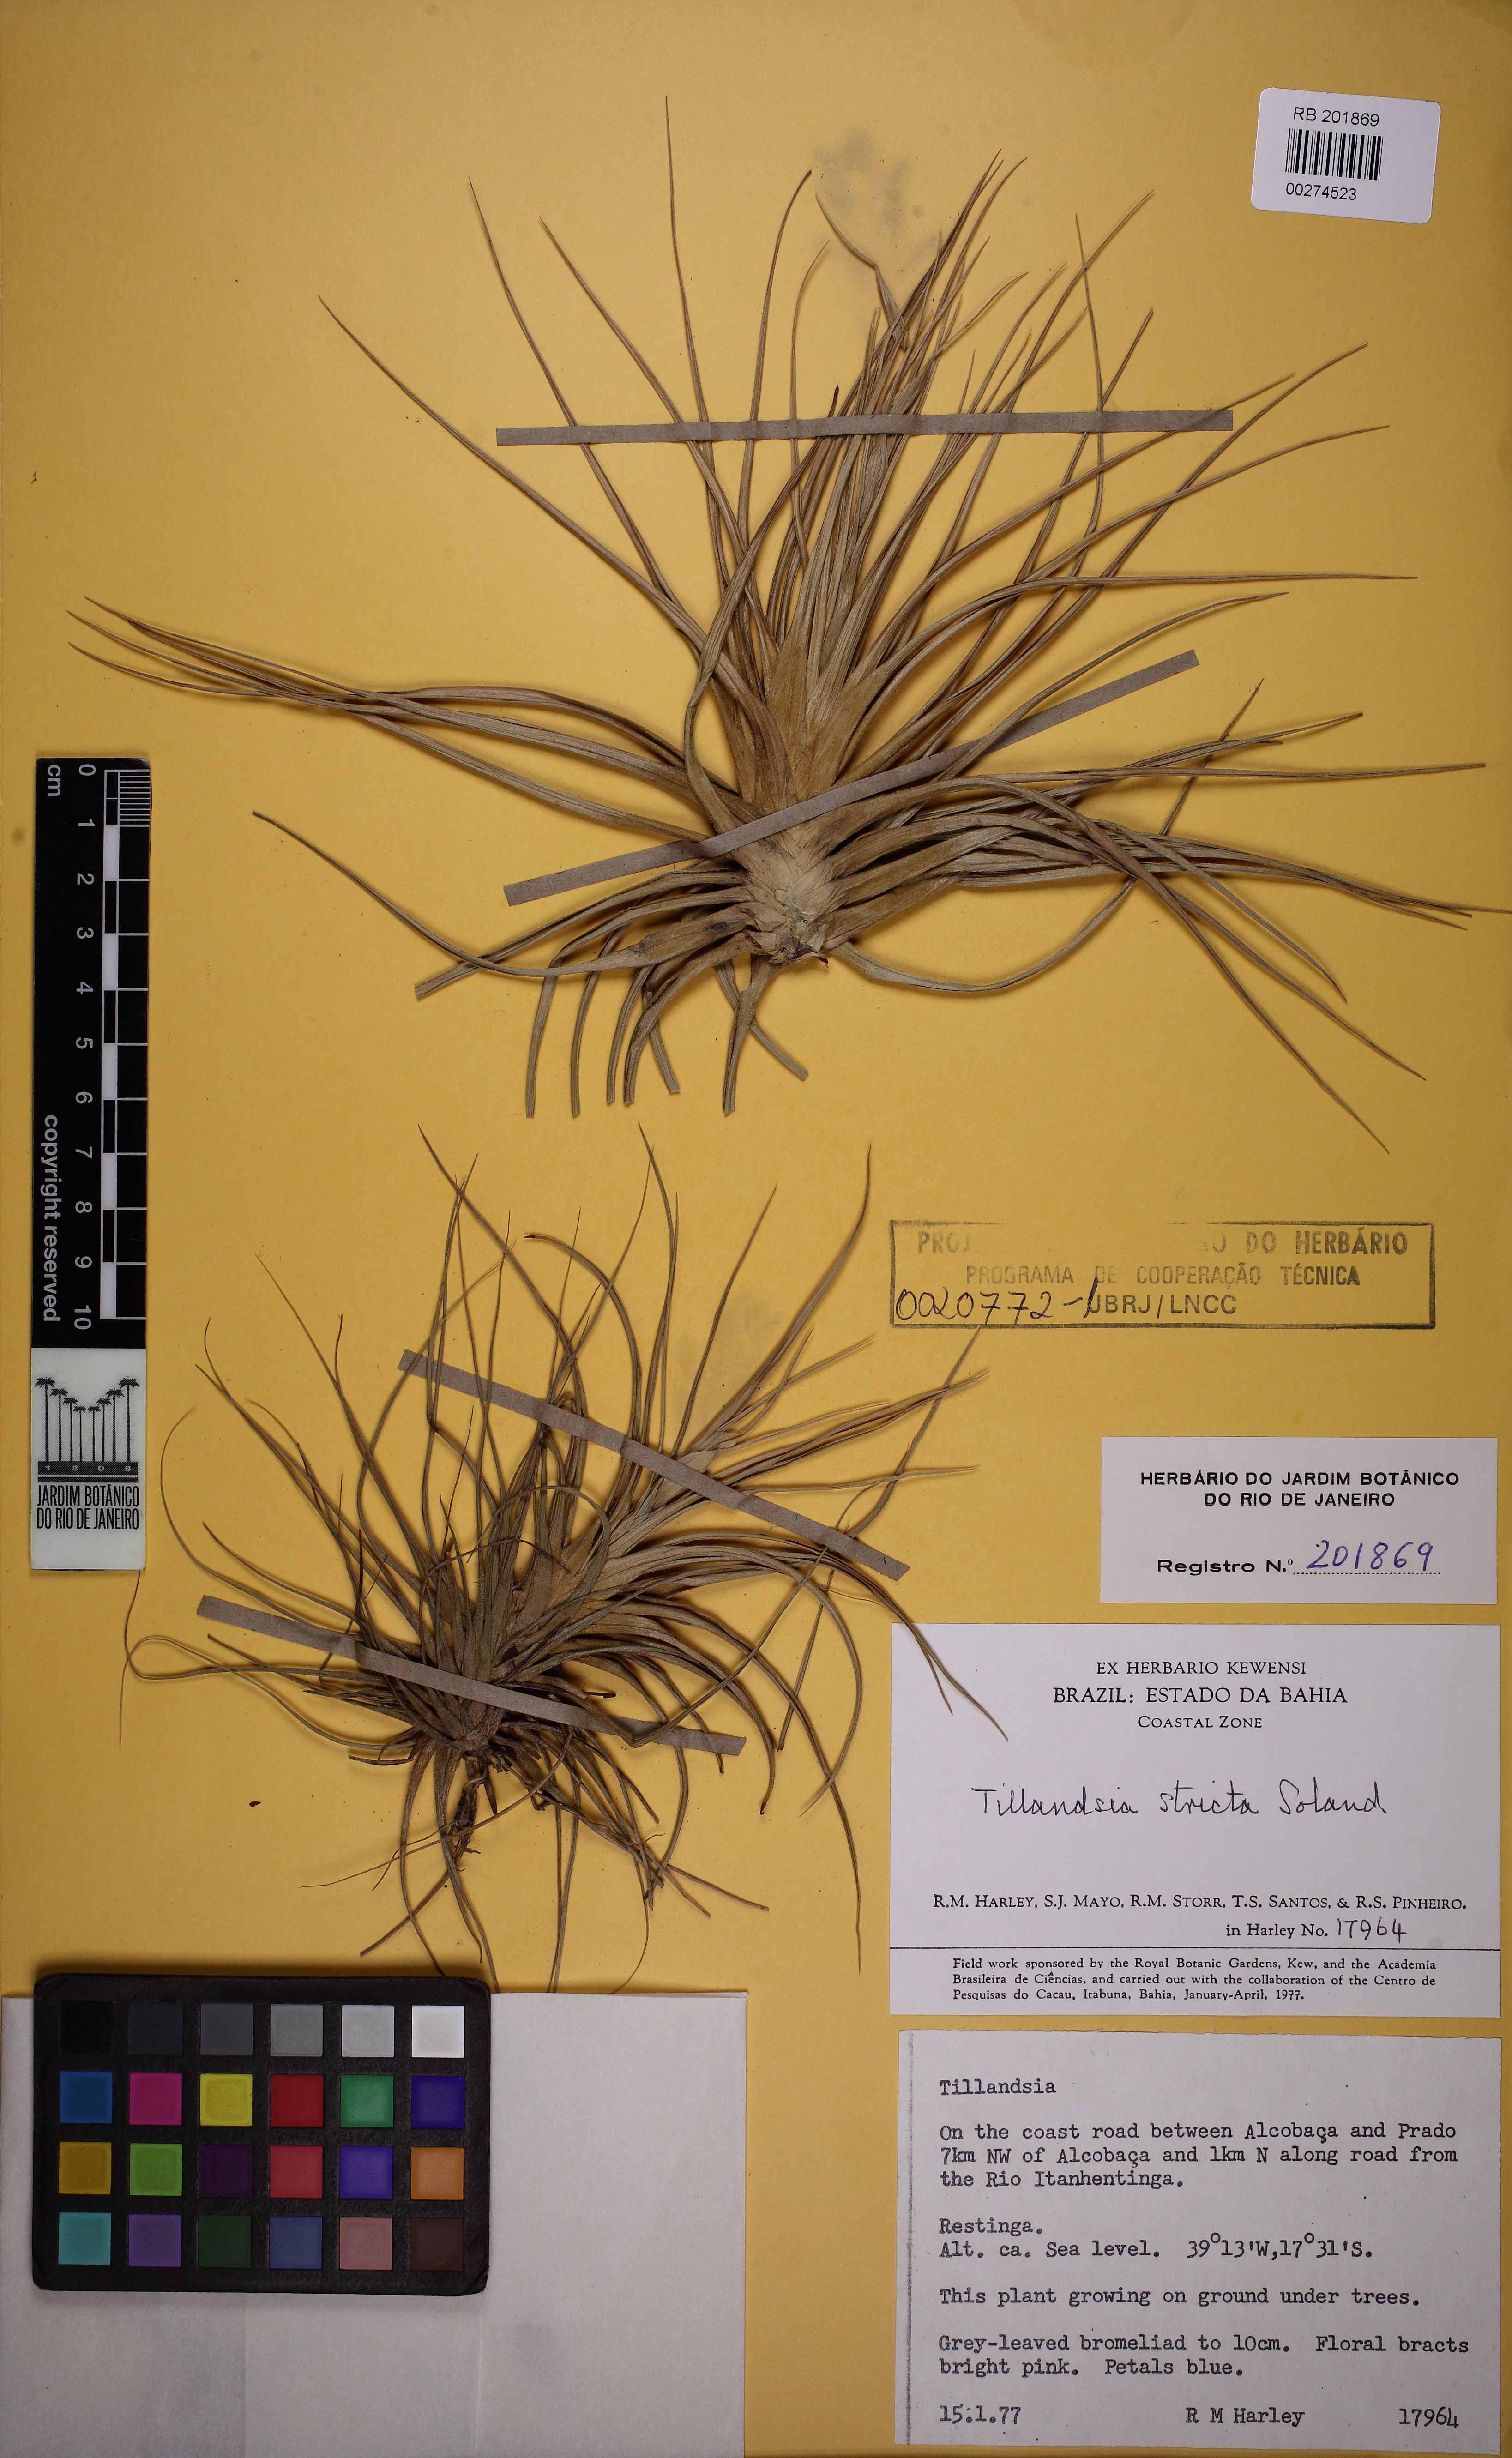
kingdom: Plantae
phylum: Tracheophyta
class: Liliopsida
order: Poales
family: Bromeliaceae
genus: Tillandsia
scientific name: Tillandsia stricta
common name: Airplant
